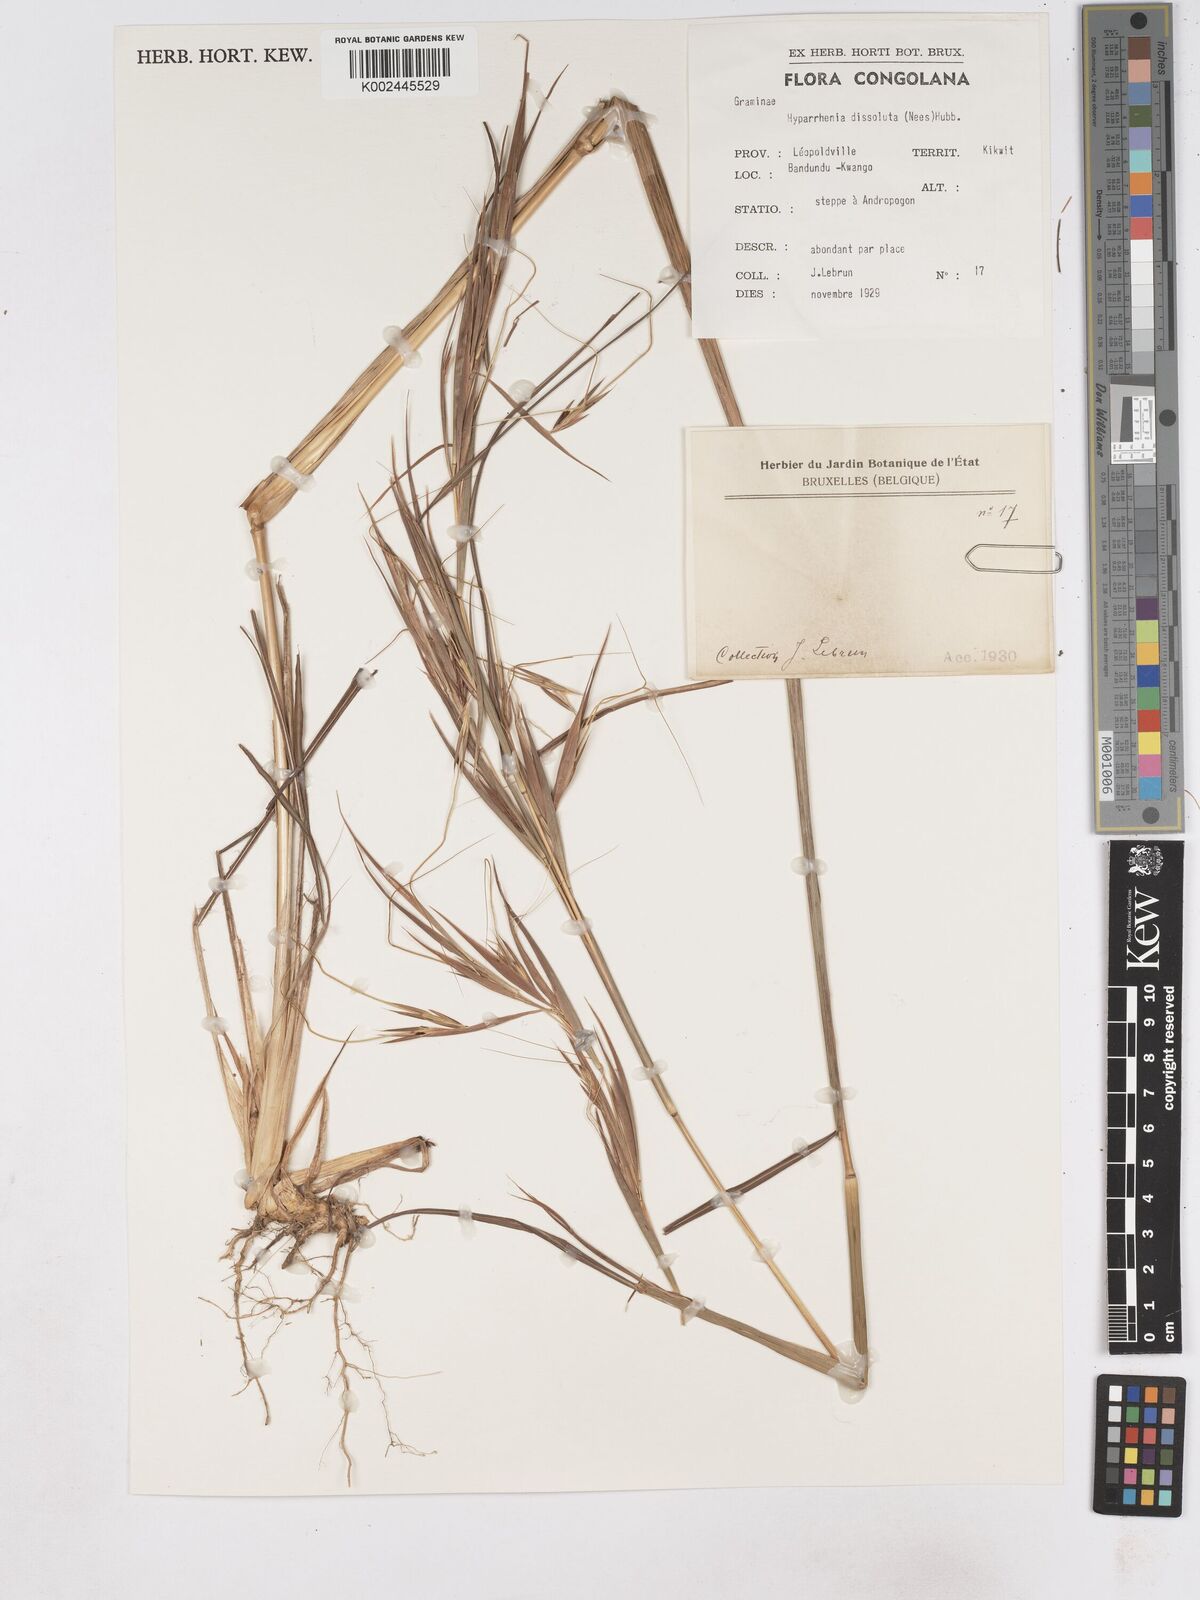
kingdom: Plantae
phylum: Tracheophyta
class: Liliopsida
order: Poales
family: Poaceae
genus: Hyperthelia
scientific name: Hyperthelia dissoluta
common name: Yellow thatching grass
